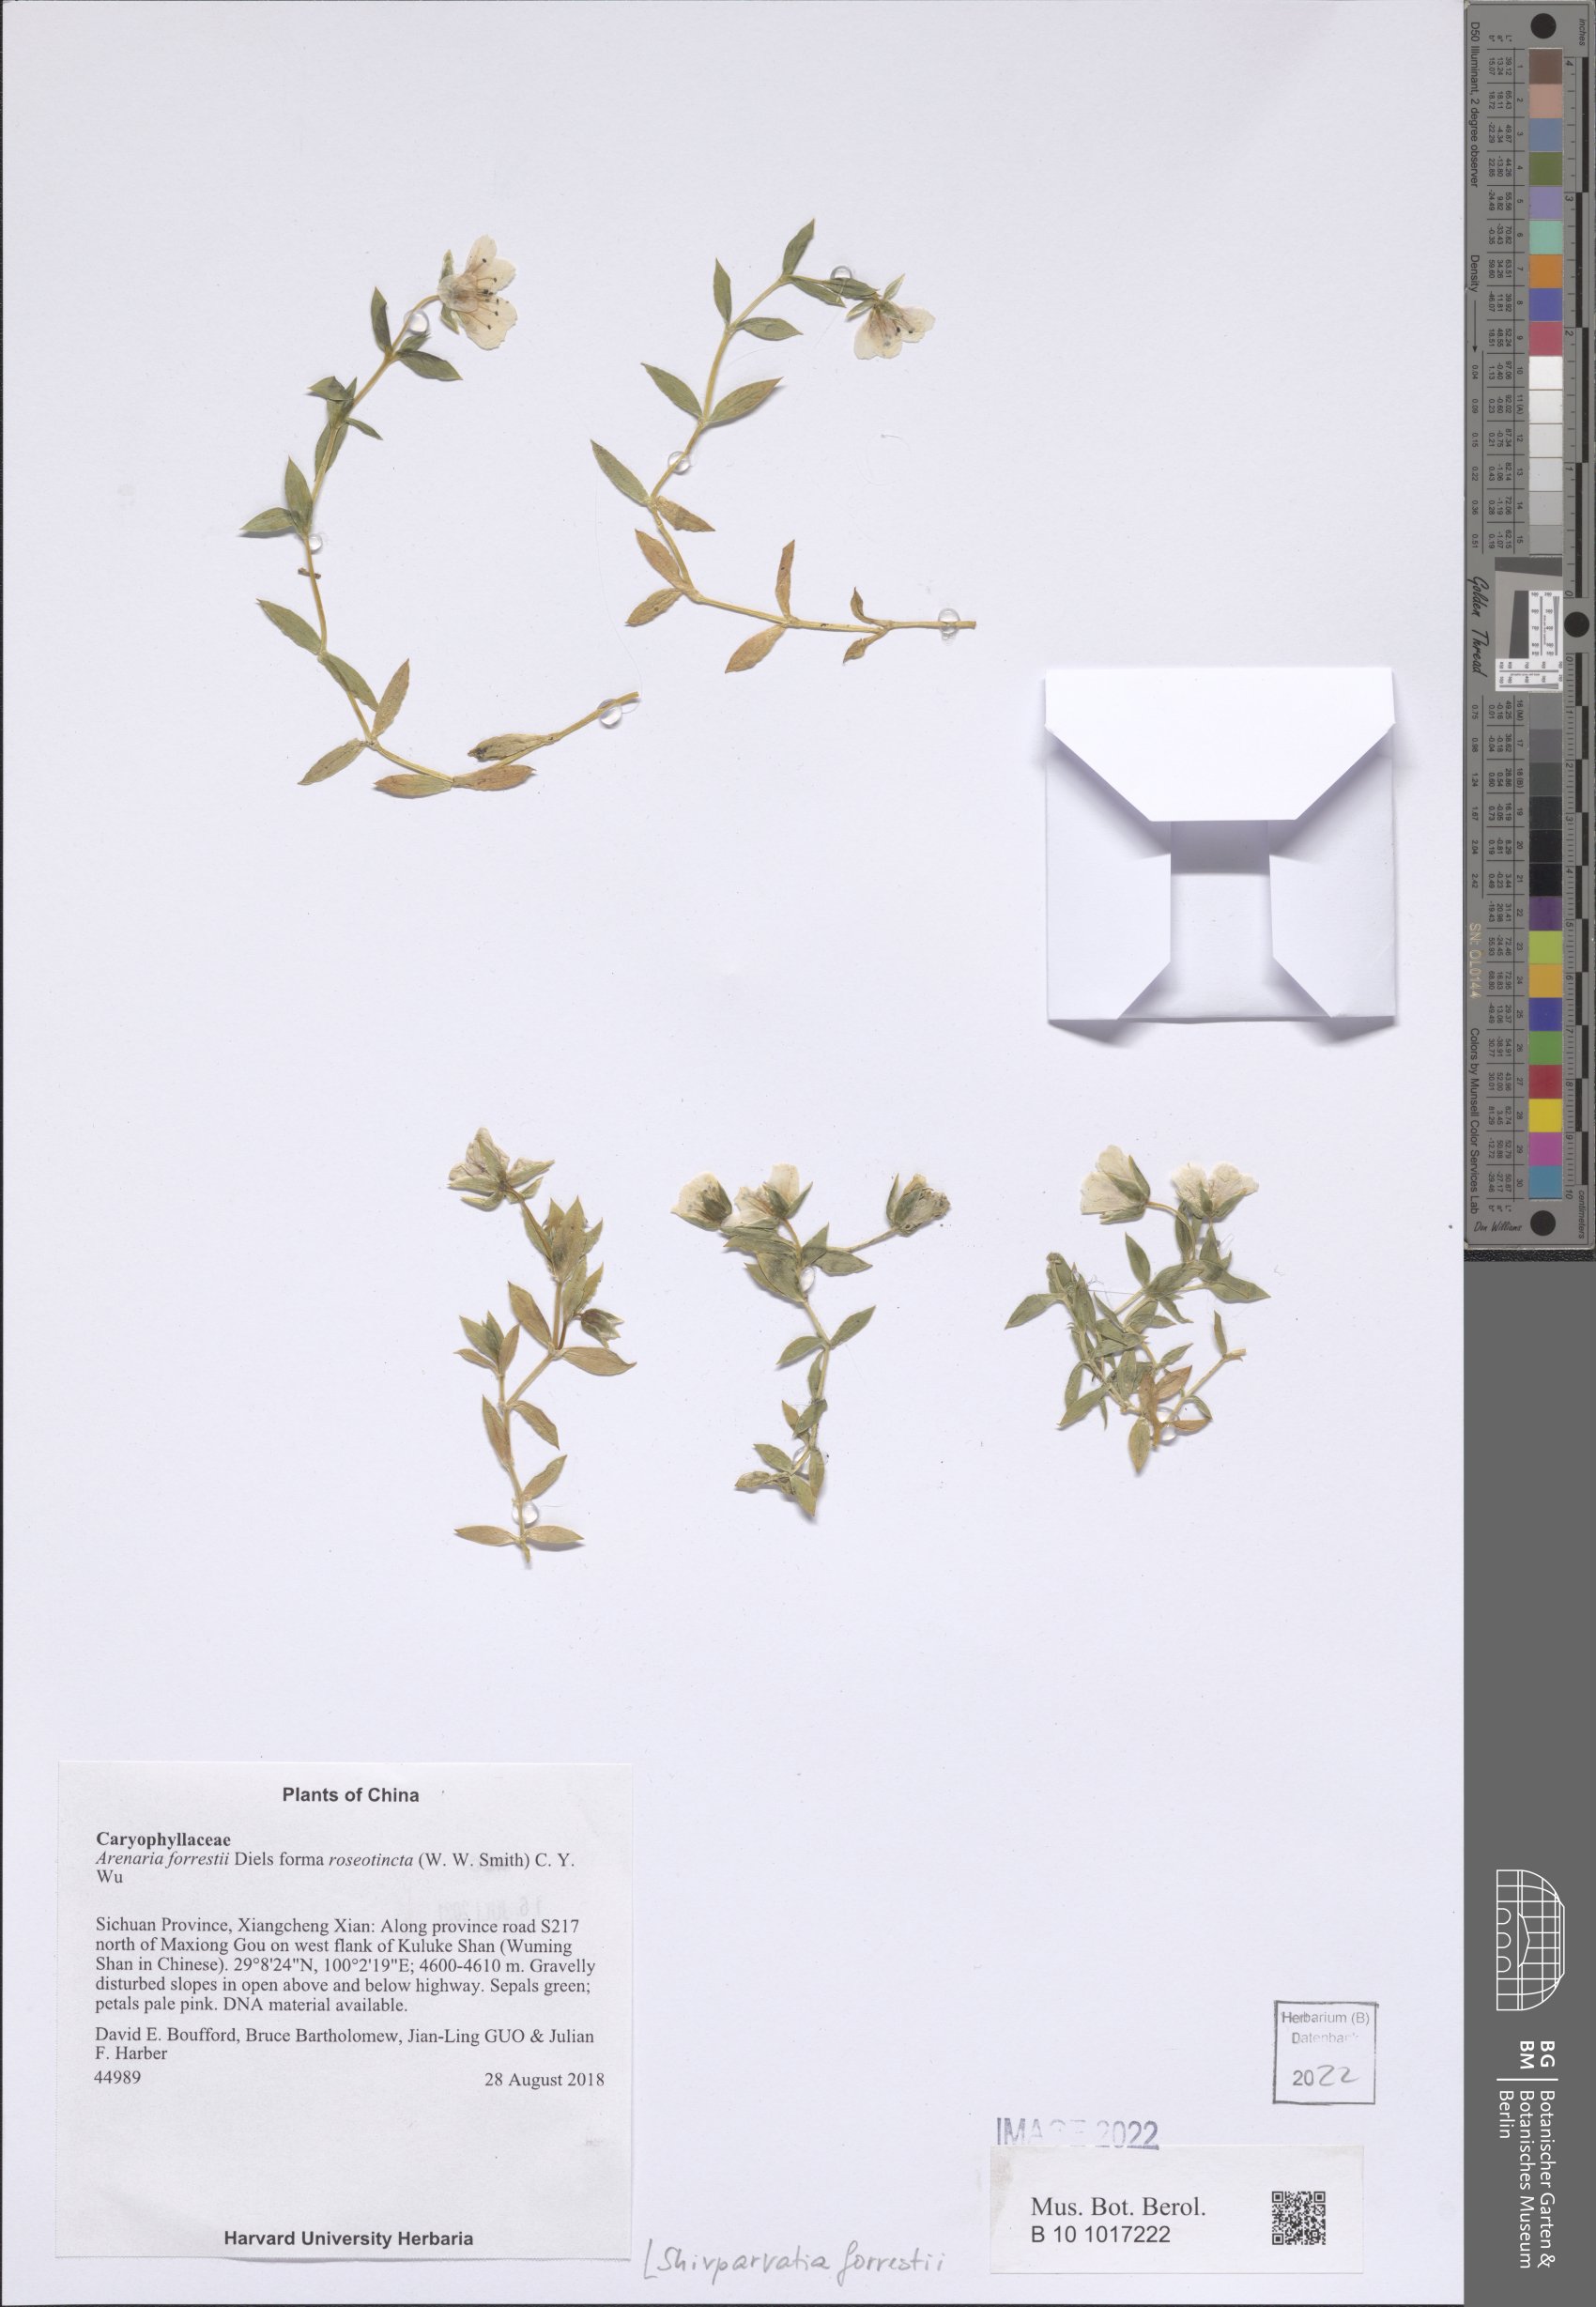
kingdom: Plantae
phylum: Tracheophyta
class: Magnoliopsida
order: Caryophyllales
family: Caryophyllaceae
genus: Shivparvatia
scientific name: Shivparvatia forrestii
